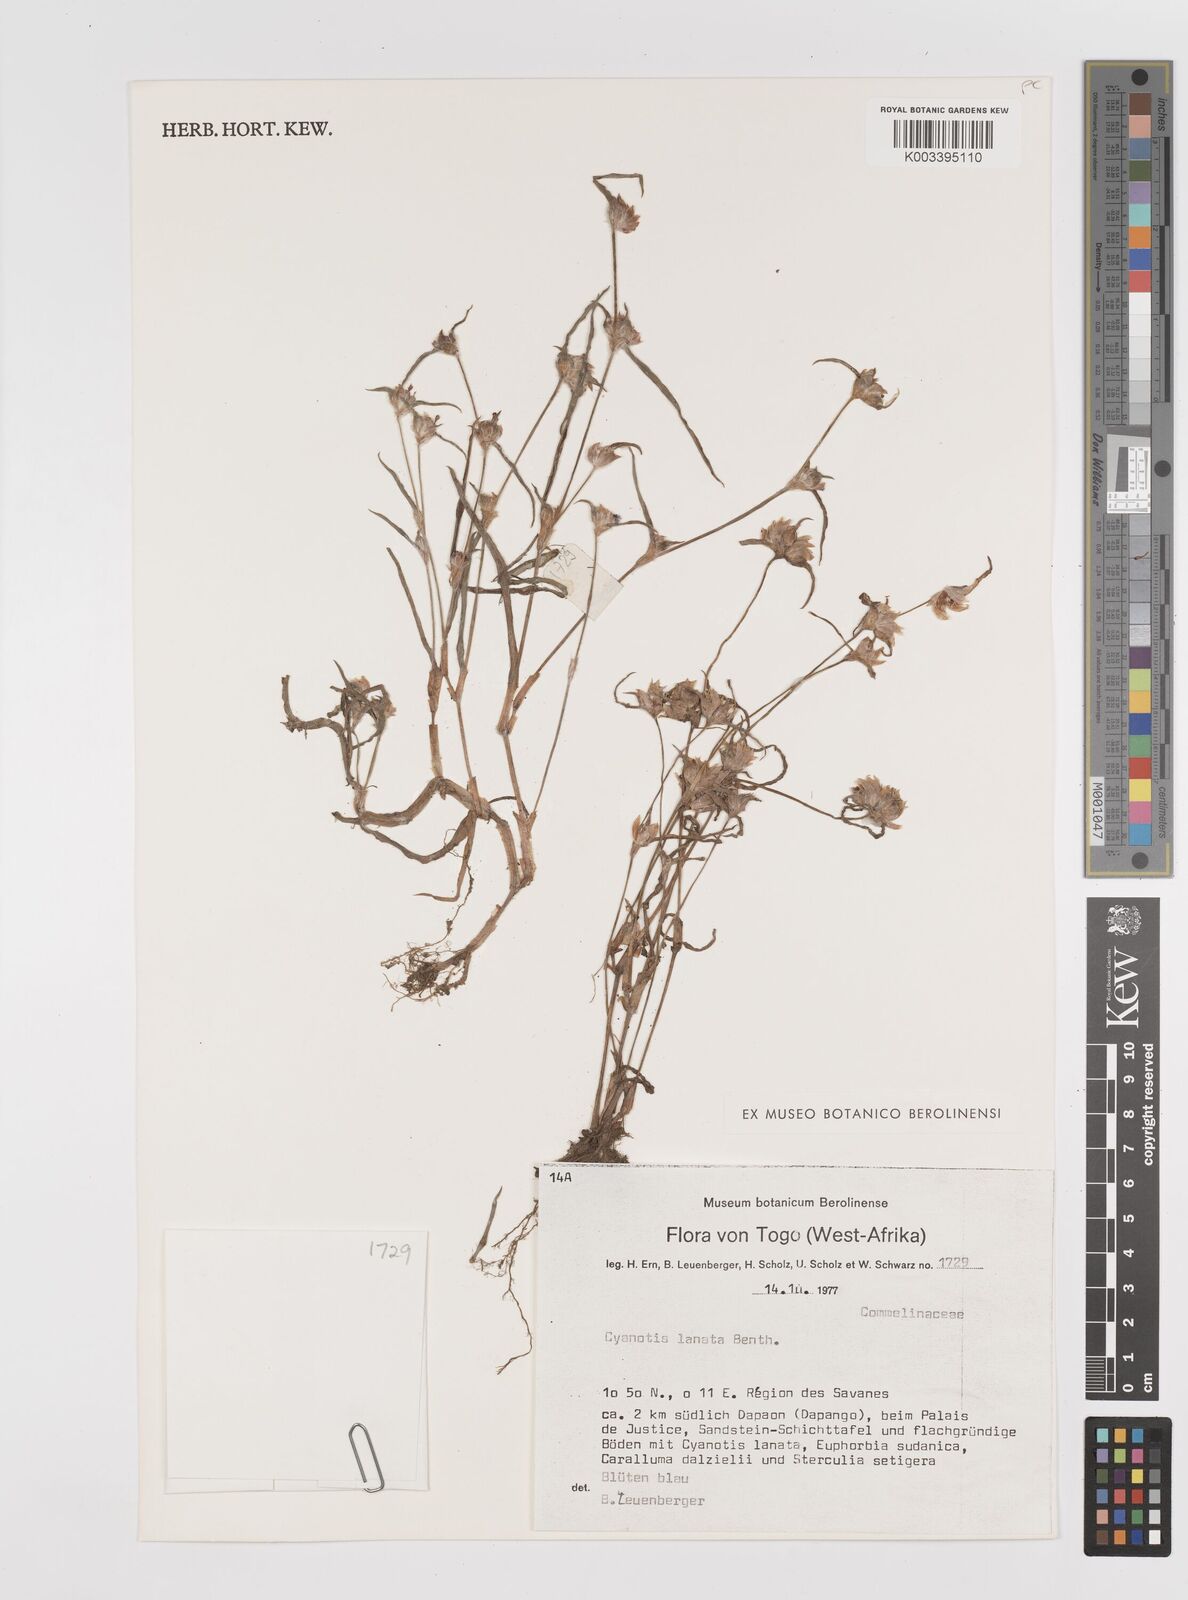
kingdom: Plantae
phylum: Tracheophyta
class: Liliopsida
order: Commelinales
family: Commelinaceae
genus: Cyanotis
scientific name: Cyanotis lanata
